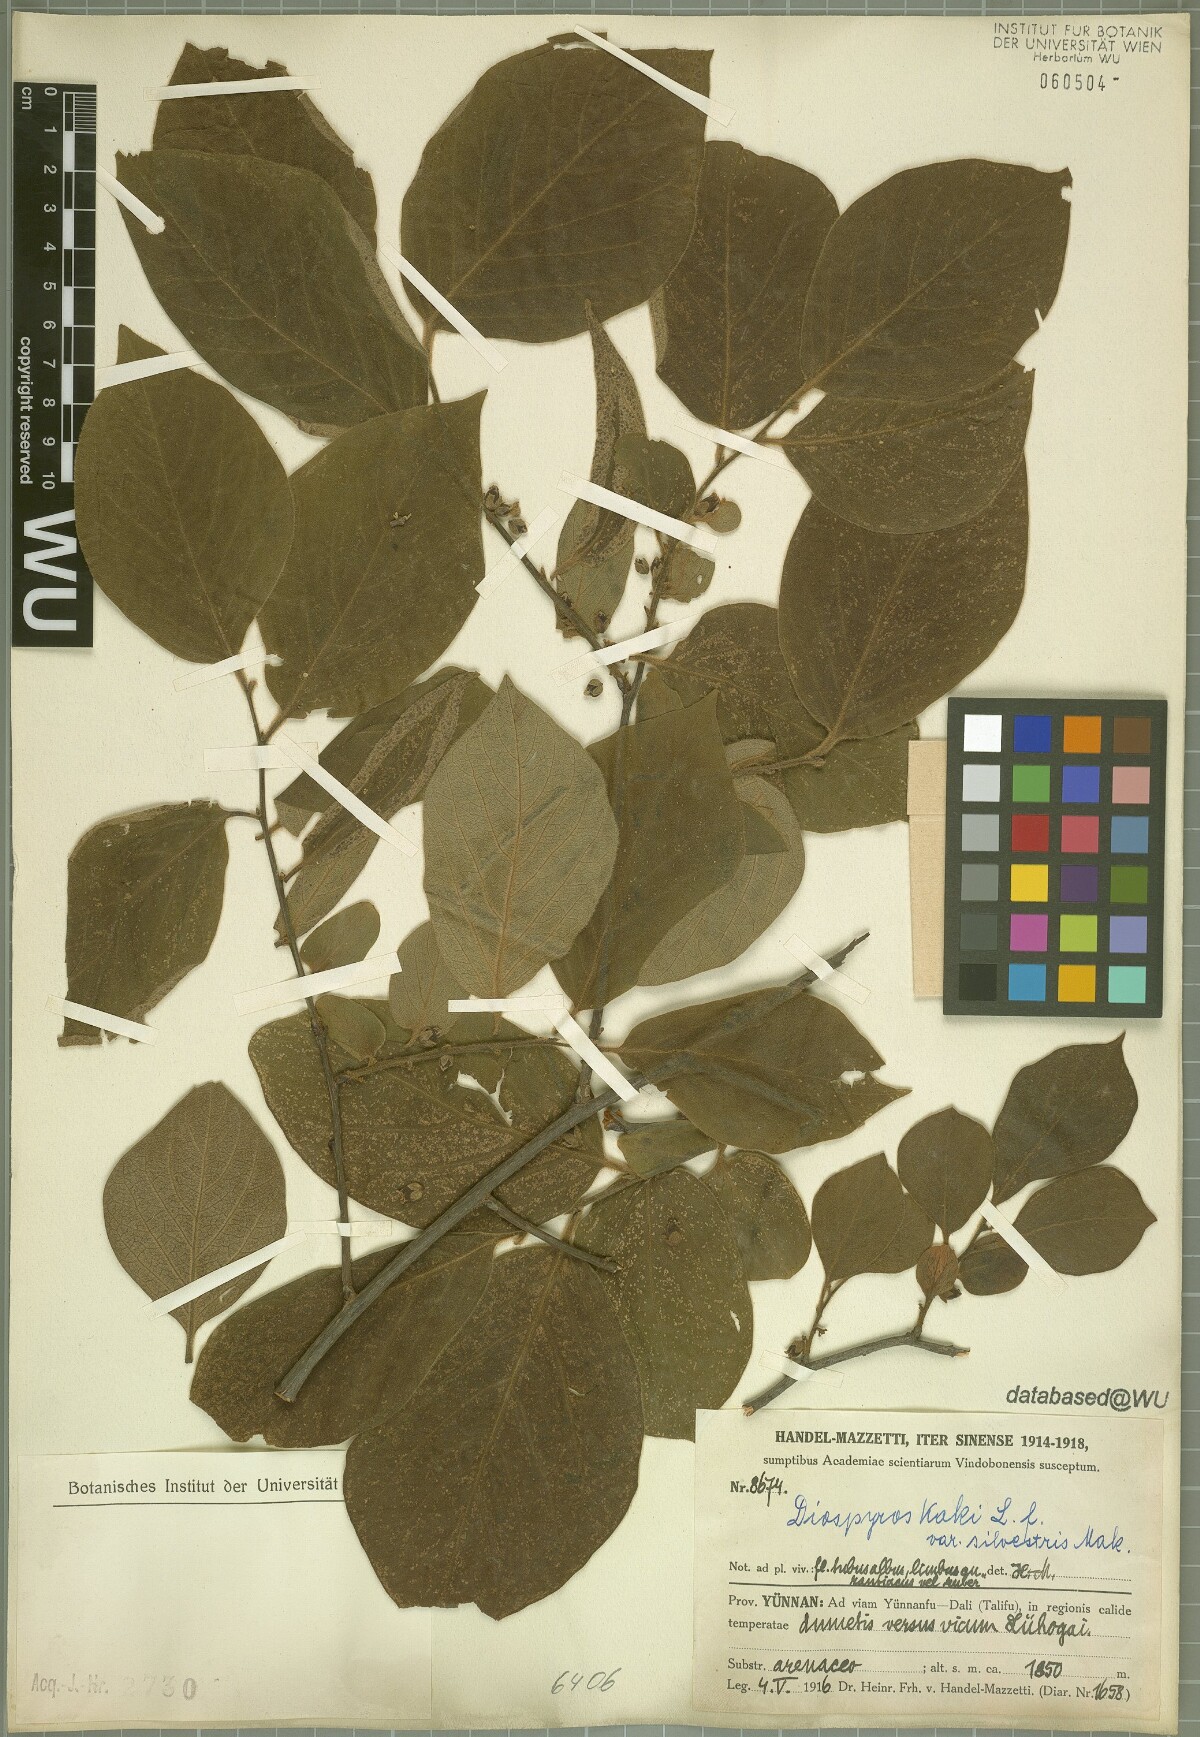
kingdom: Plantae
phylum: Tracheophyta
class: Magnoliopsida
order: Ericales
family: Ebenaceae
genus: Diospyros
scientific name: Diospyros kaki
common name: Persimmon
